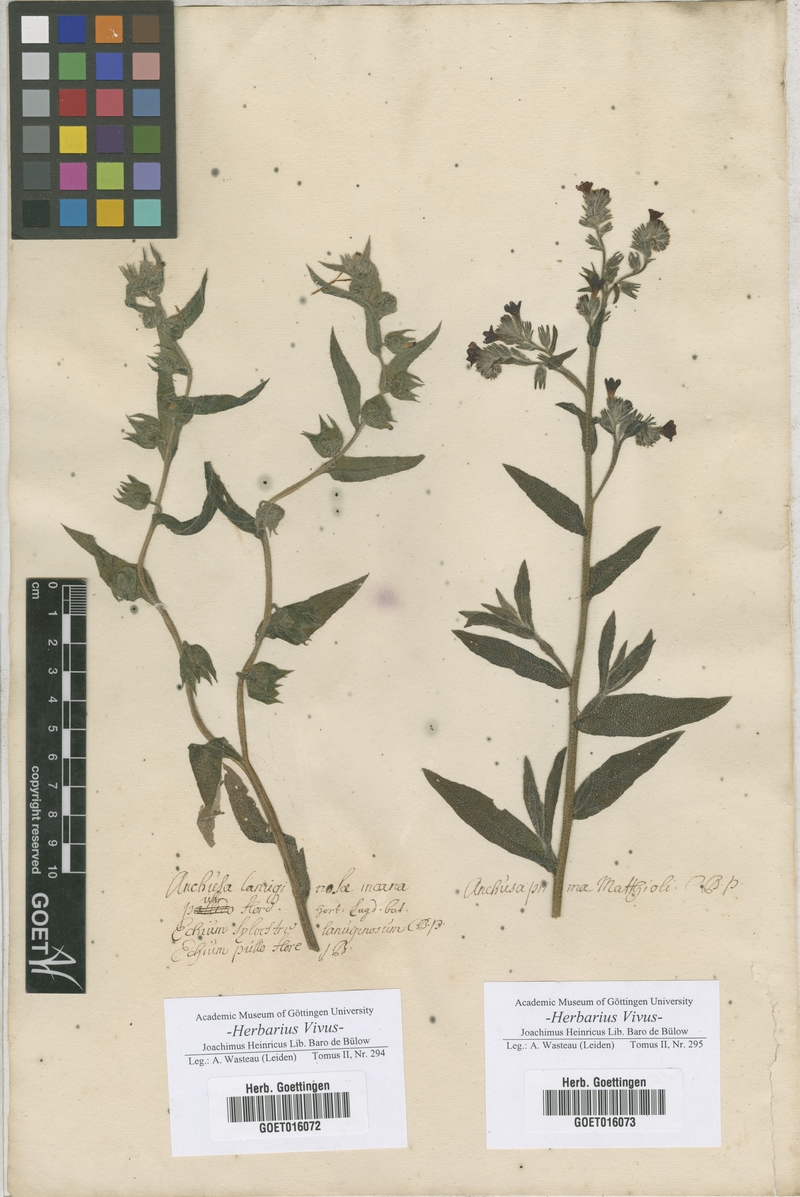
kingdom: Plantae
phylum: Tracheophyta
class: Magnoliopsida
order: Boraginales
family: Boraginaceae
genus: Anchusa
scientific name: Anchusa
